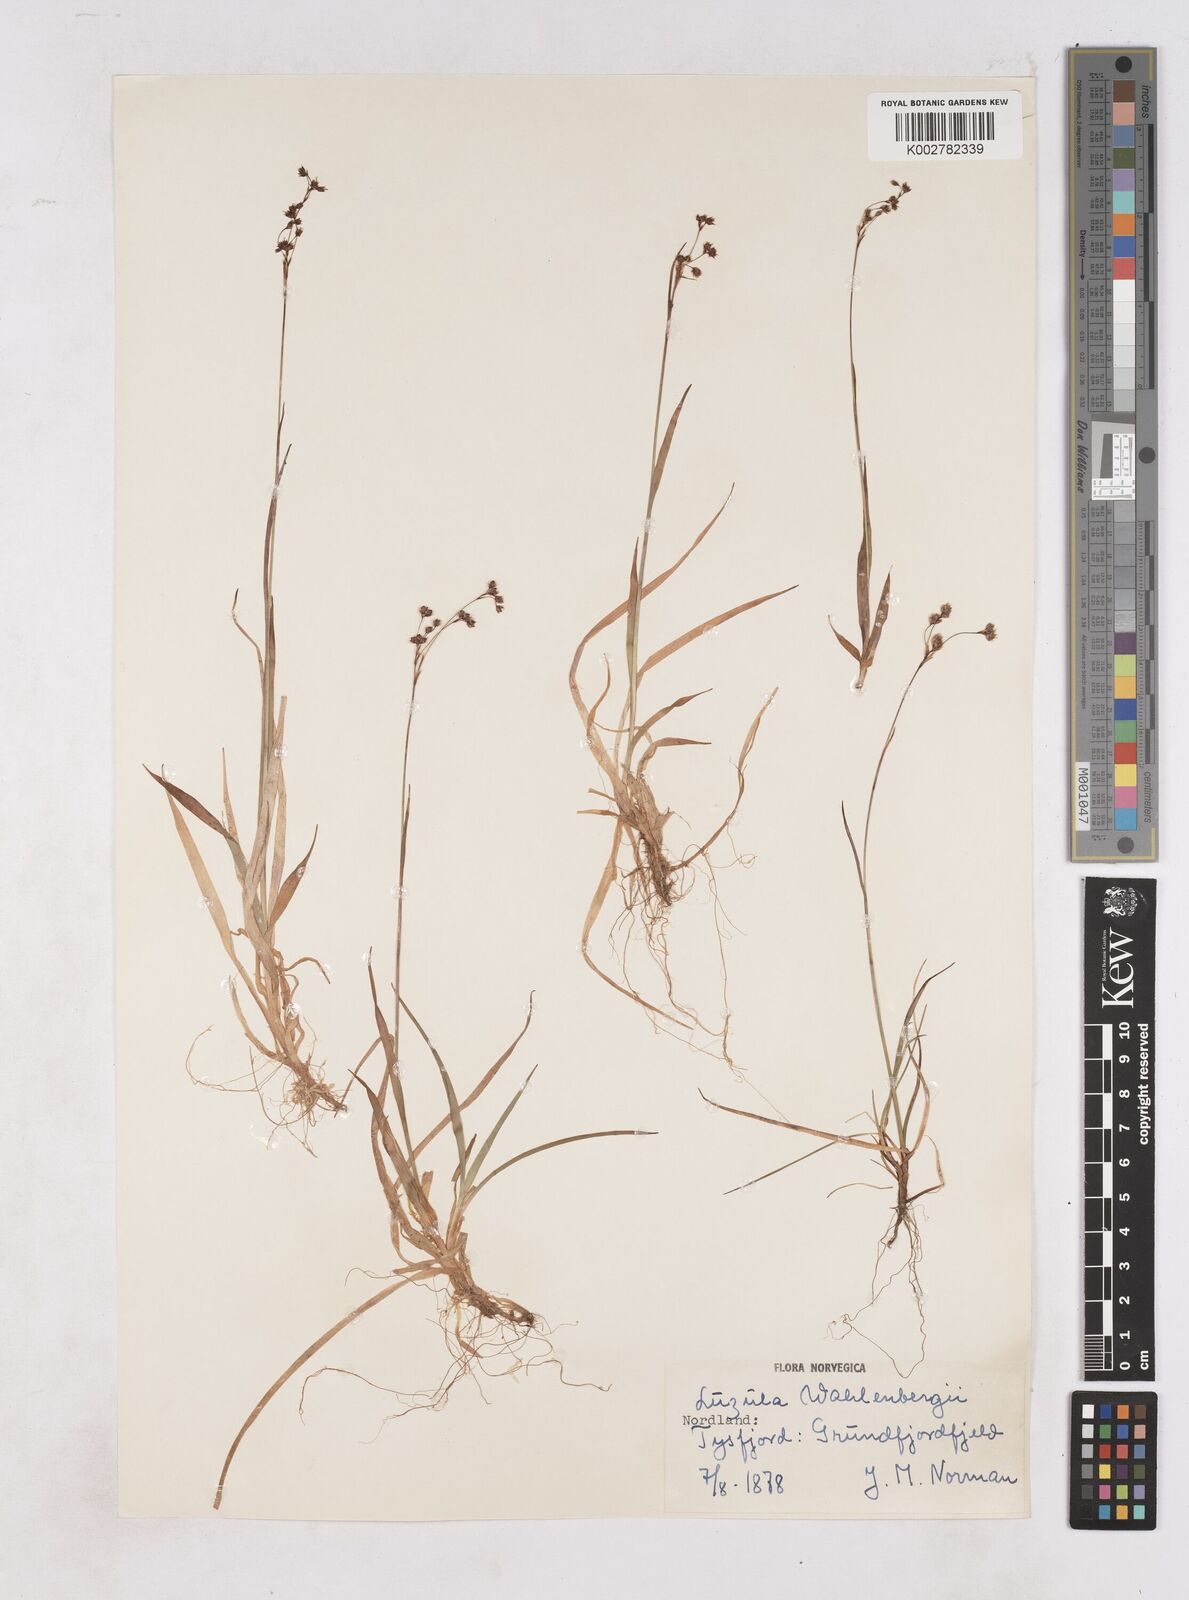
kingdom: Plantae
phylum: Tracheophyta
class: Liliopsida
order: Poales
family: Juncaceae
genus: Luzula
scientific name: Luzula alpinopilosa
